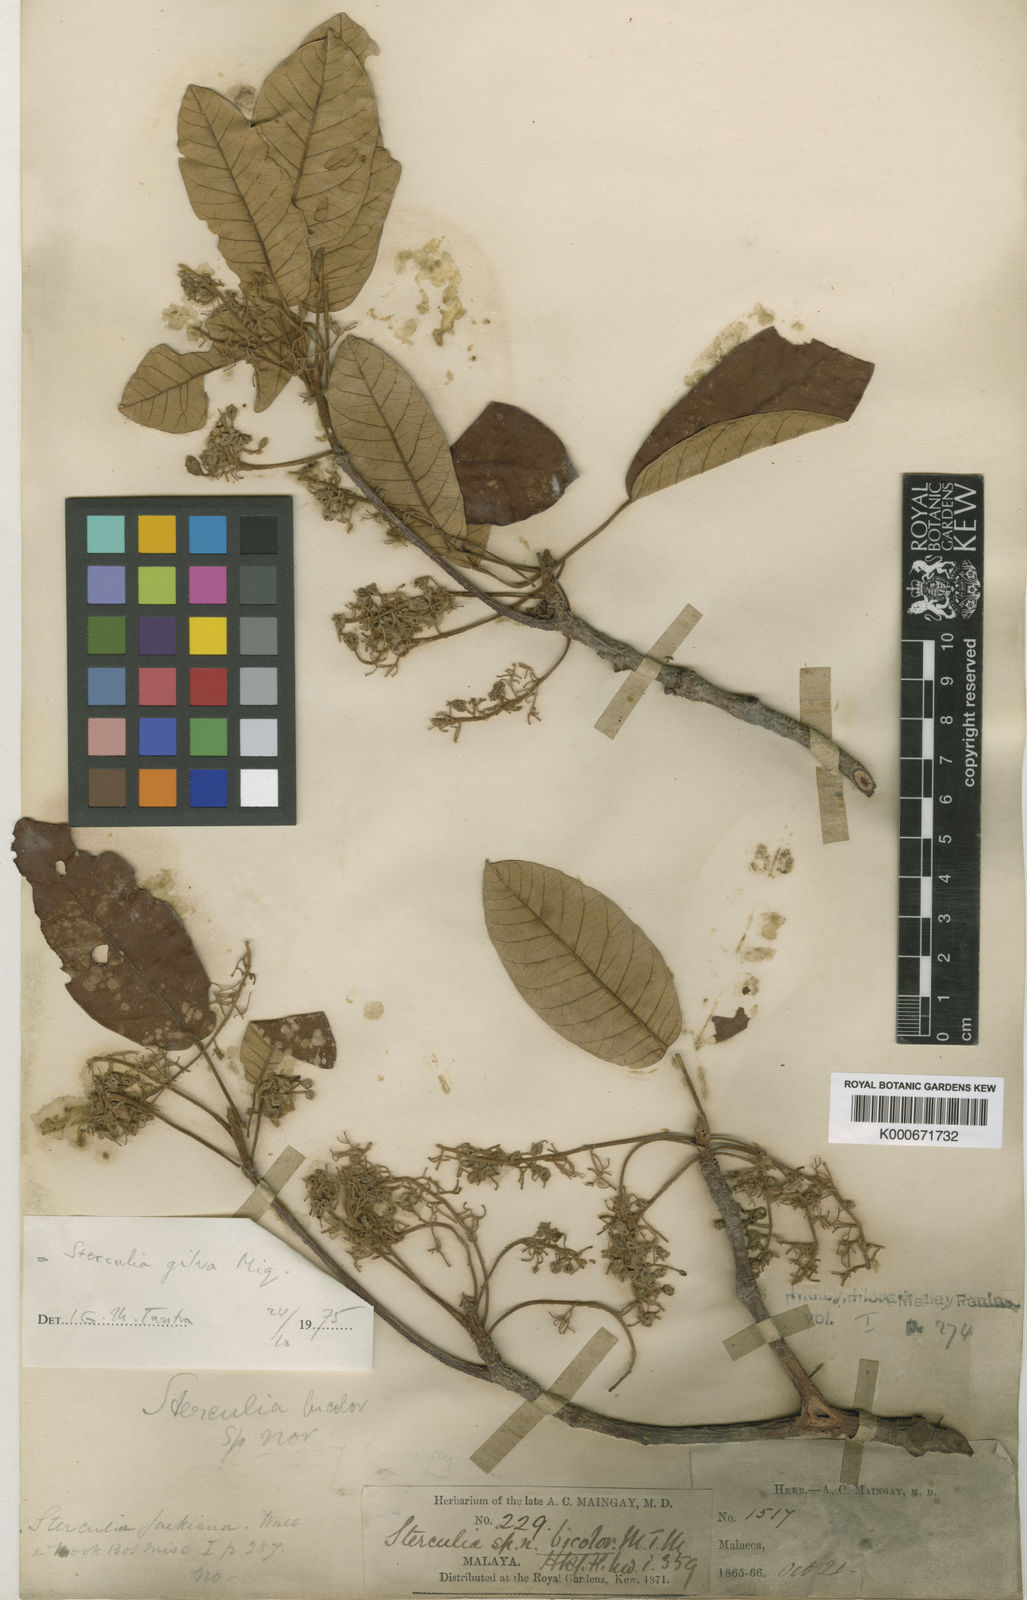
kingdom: Plantae
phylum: Tracheophyta
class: Magnoliopsida
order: Malvales
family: Malvaceae
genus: Sterculia
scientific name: Sterculia gilva
